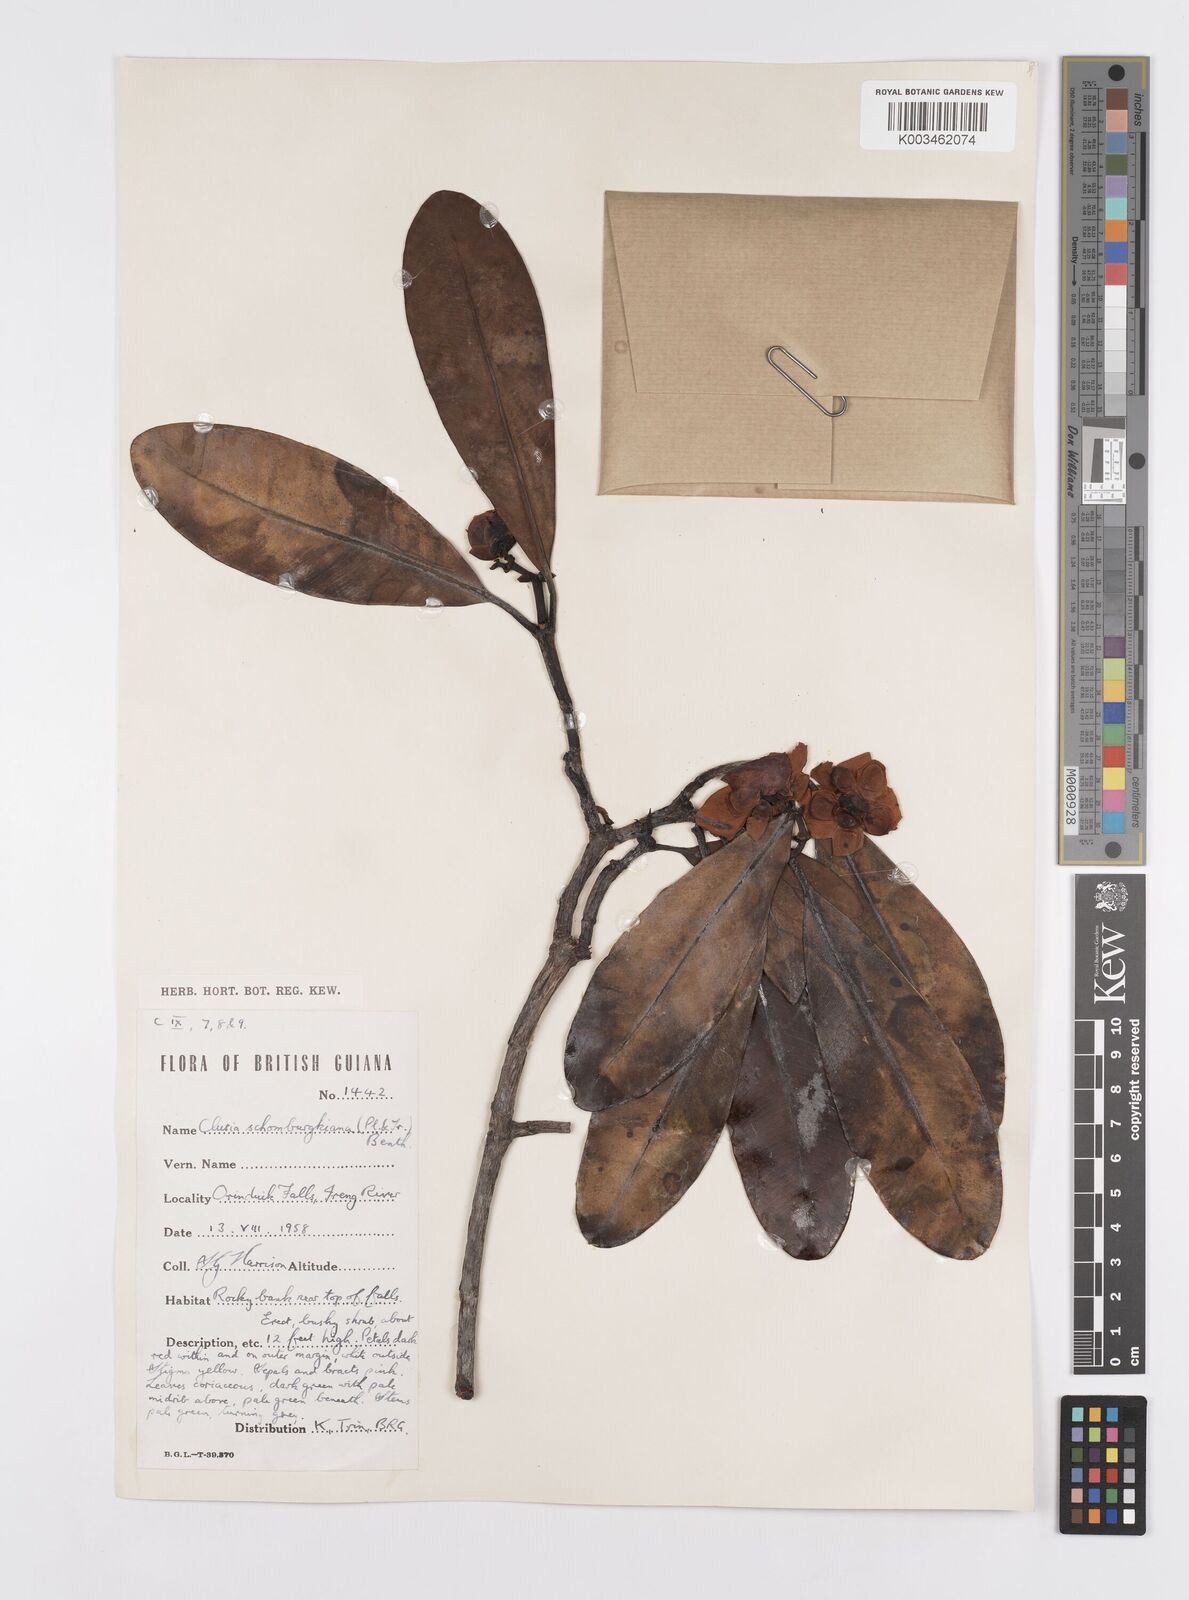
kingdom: Plantae
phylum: Tracheophyta
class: Magnoliopsida
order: Malpighiales
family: Clusiaceae
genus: Clusia
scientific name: Clusia schomburgkiana
